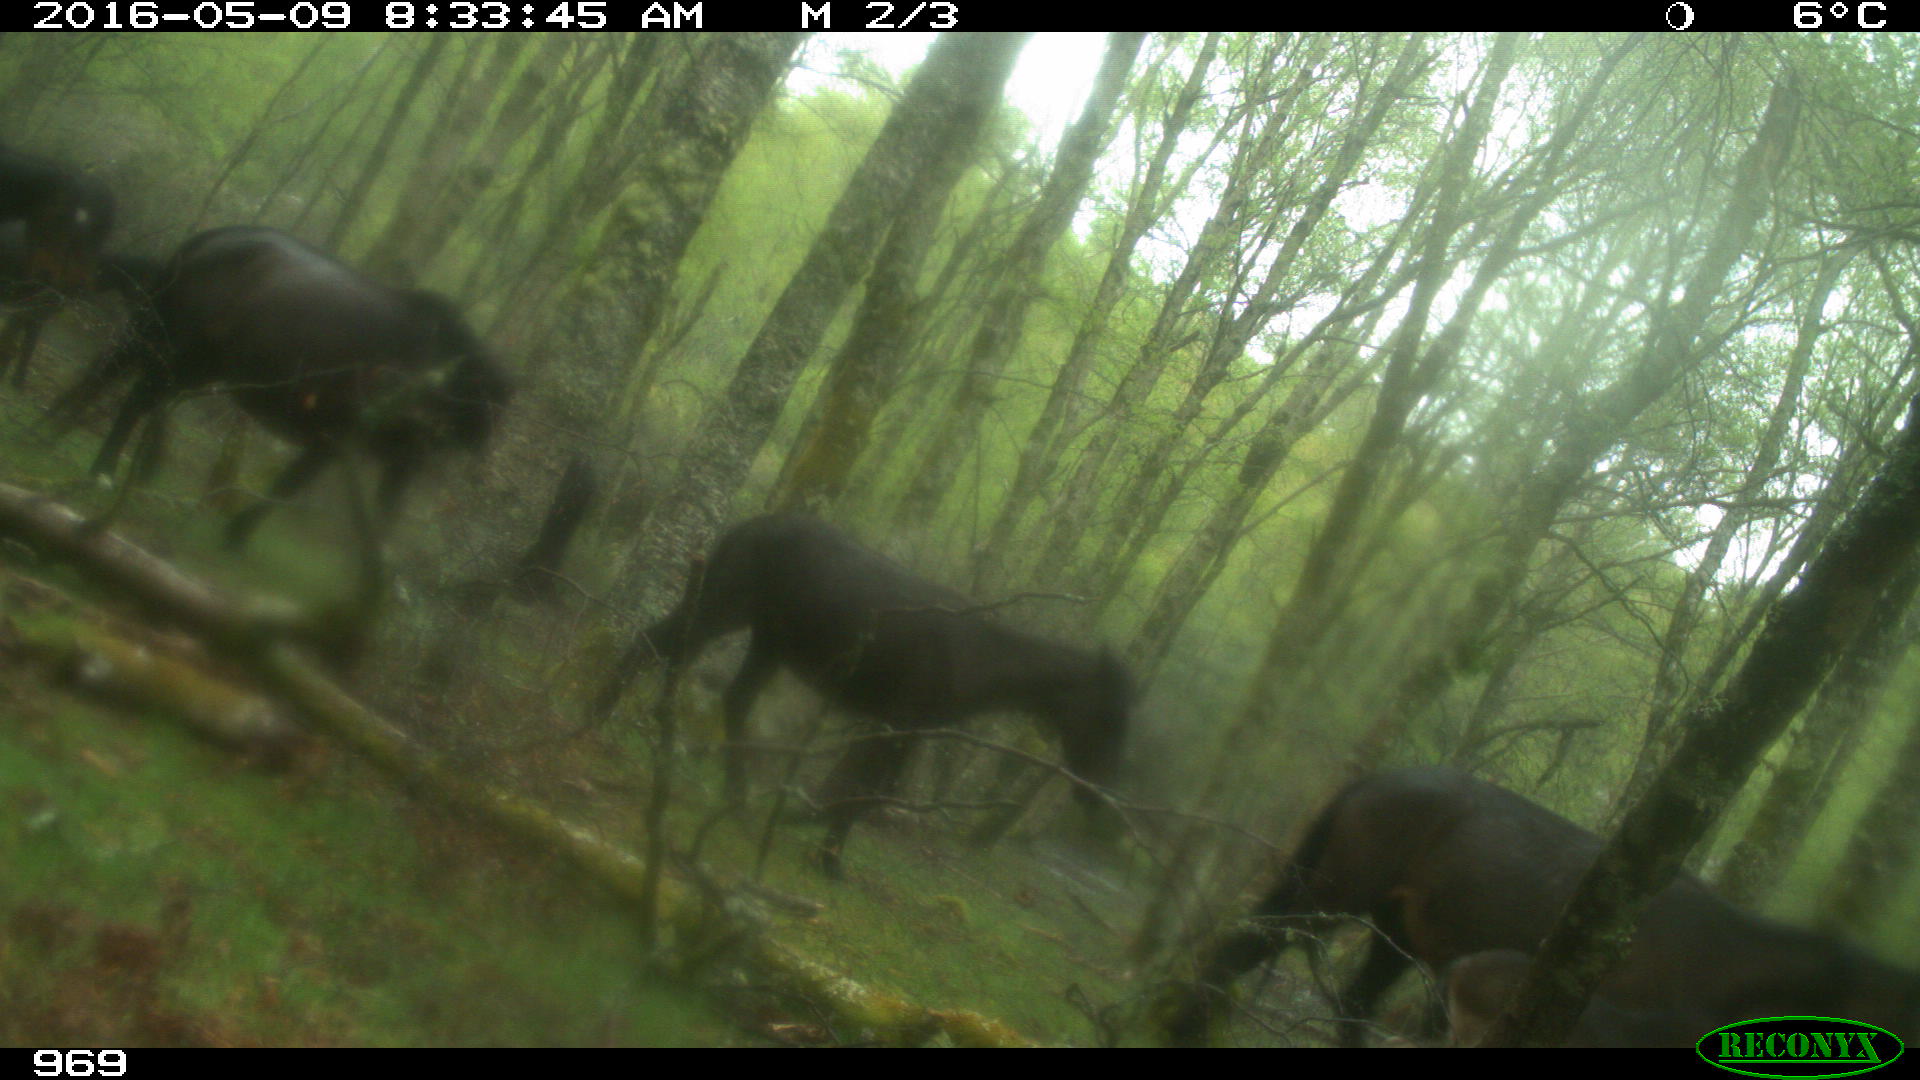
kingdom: Animalia
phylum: Chordata
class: Mammalia
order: Perissodactyla
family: Equidae
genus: Equus
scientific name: Equus caballus
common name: Horse
